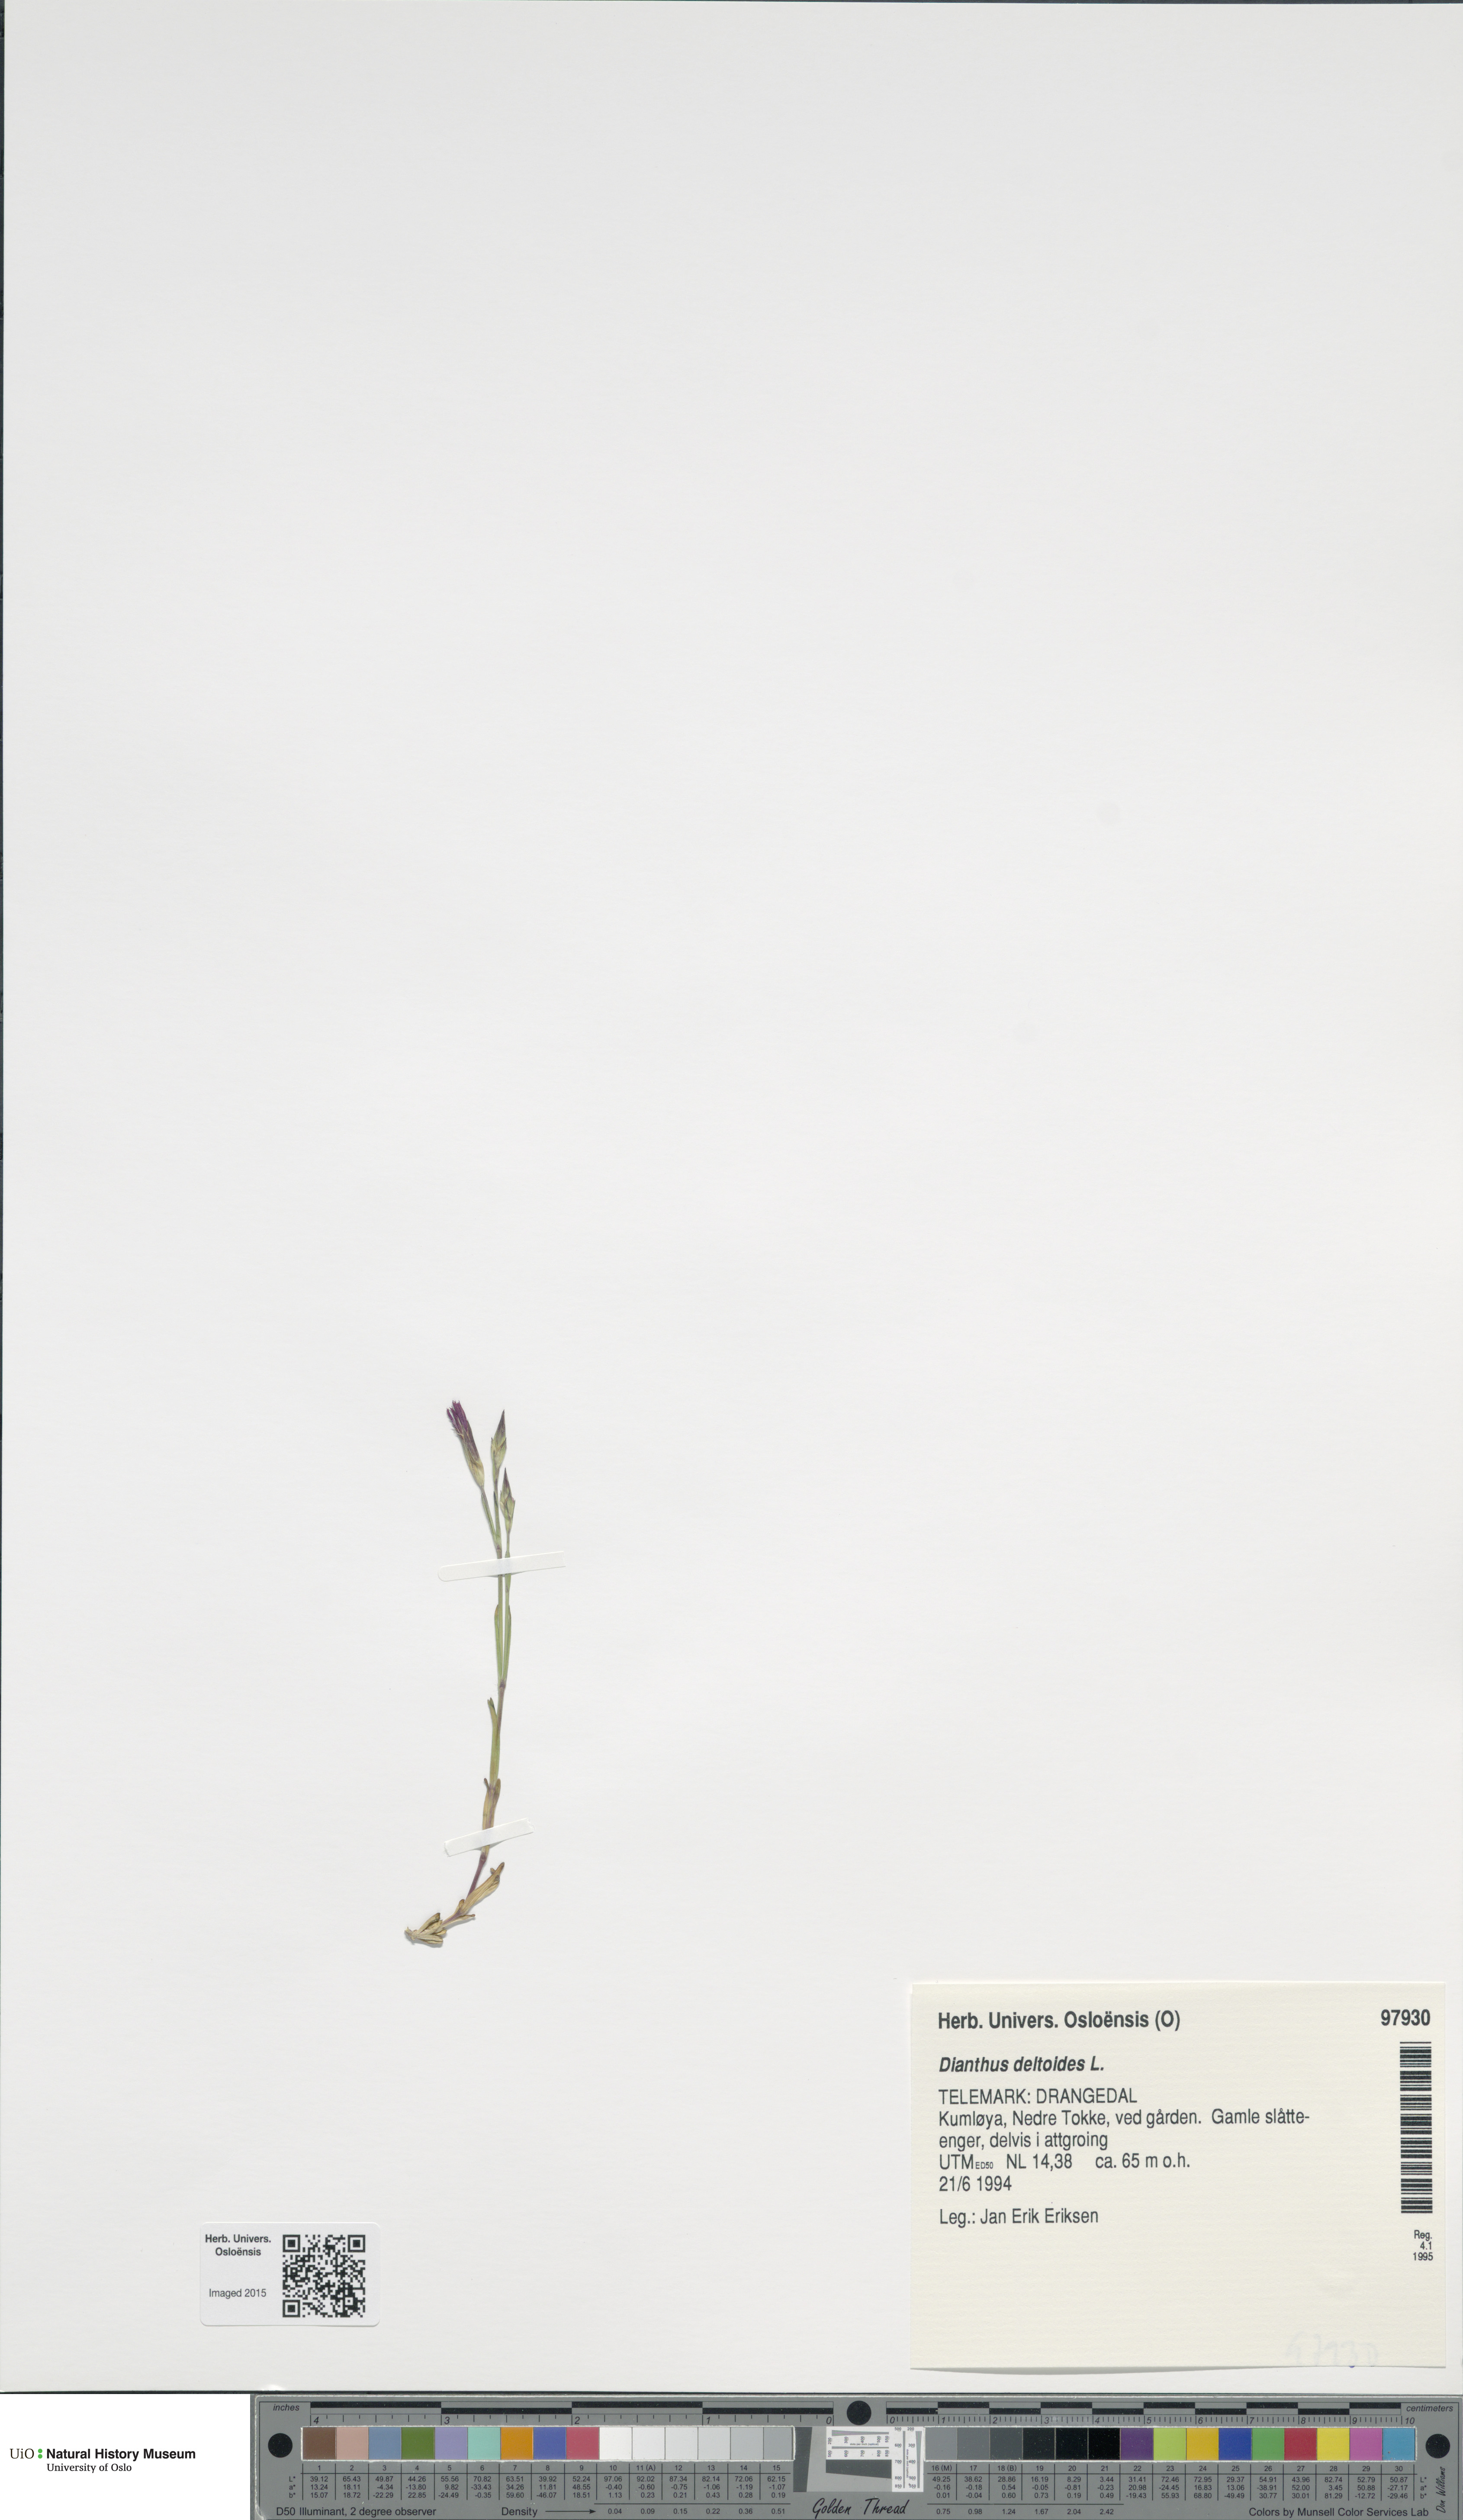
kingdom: Plantae
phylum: Tracheophyta
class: Magnoliopsida
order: Caryophyllales
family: Caryophyllaceae
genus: Dianthus
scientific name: Dianthus deltoides
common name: Maiden pink
